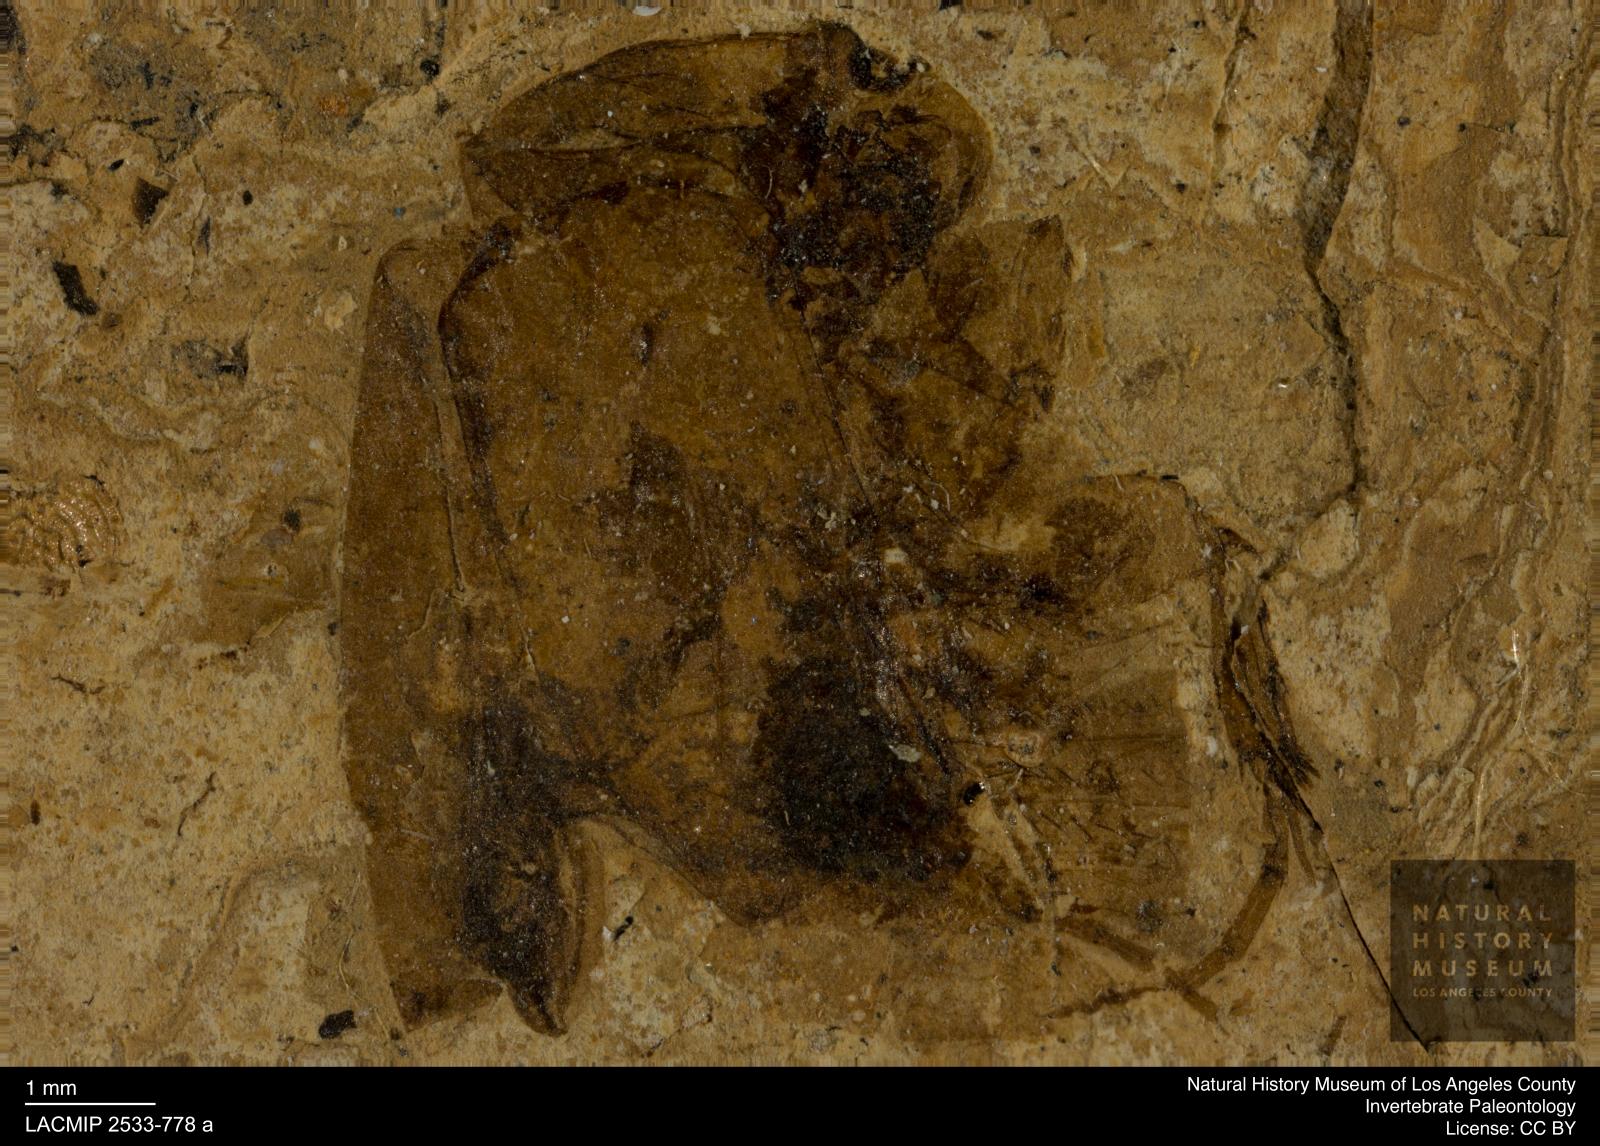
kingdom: Animalia
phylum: Arthropoda
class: Insecta
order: Coleoptera
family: Scarabaeidae
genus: Maladera
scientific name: Maladera spinitibialis
